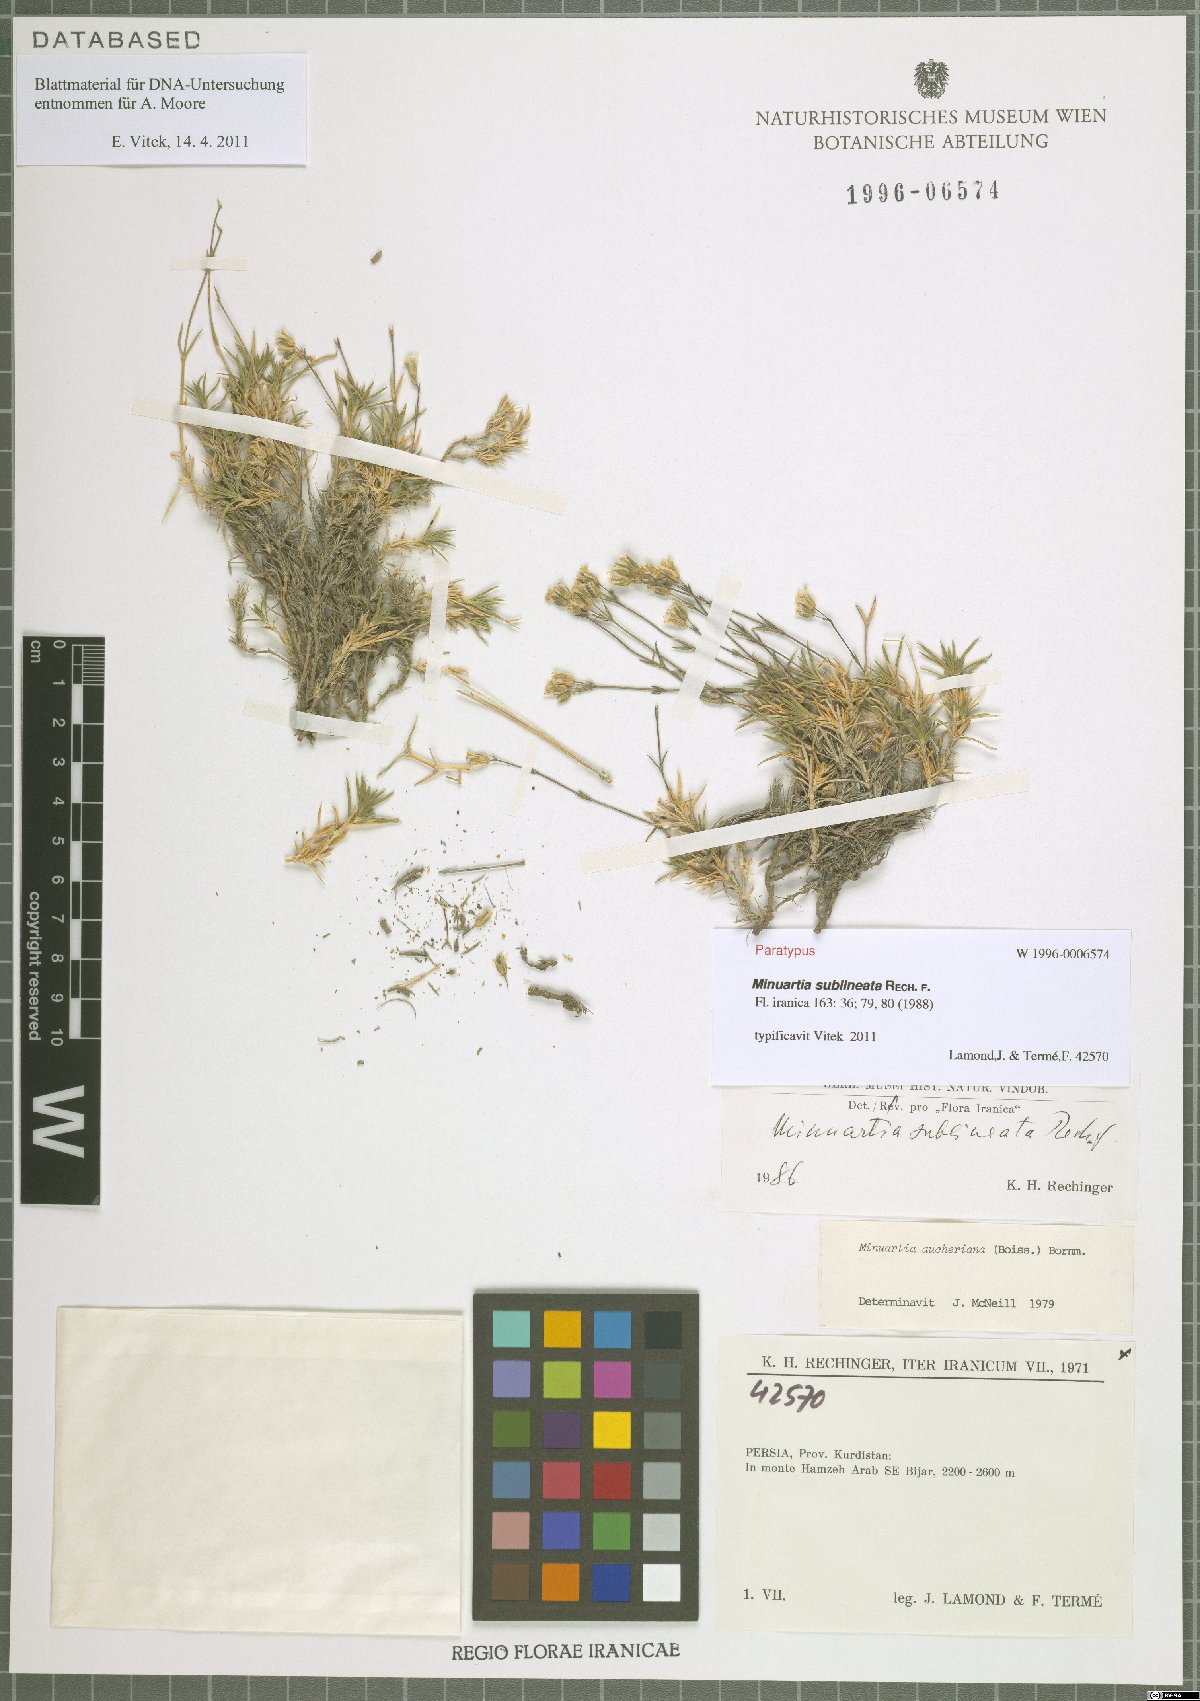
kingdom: Plantae
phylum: Tracheophyta
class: Magnoliopsida
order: Caryophyllales
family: Caryophyllaceae
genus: Sabulina
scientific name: Sabulina sublineata
